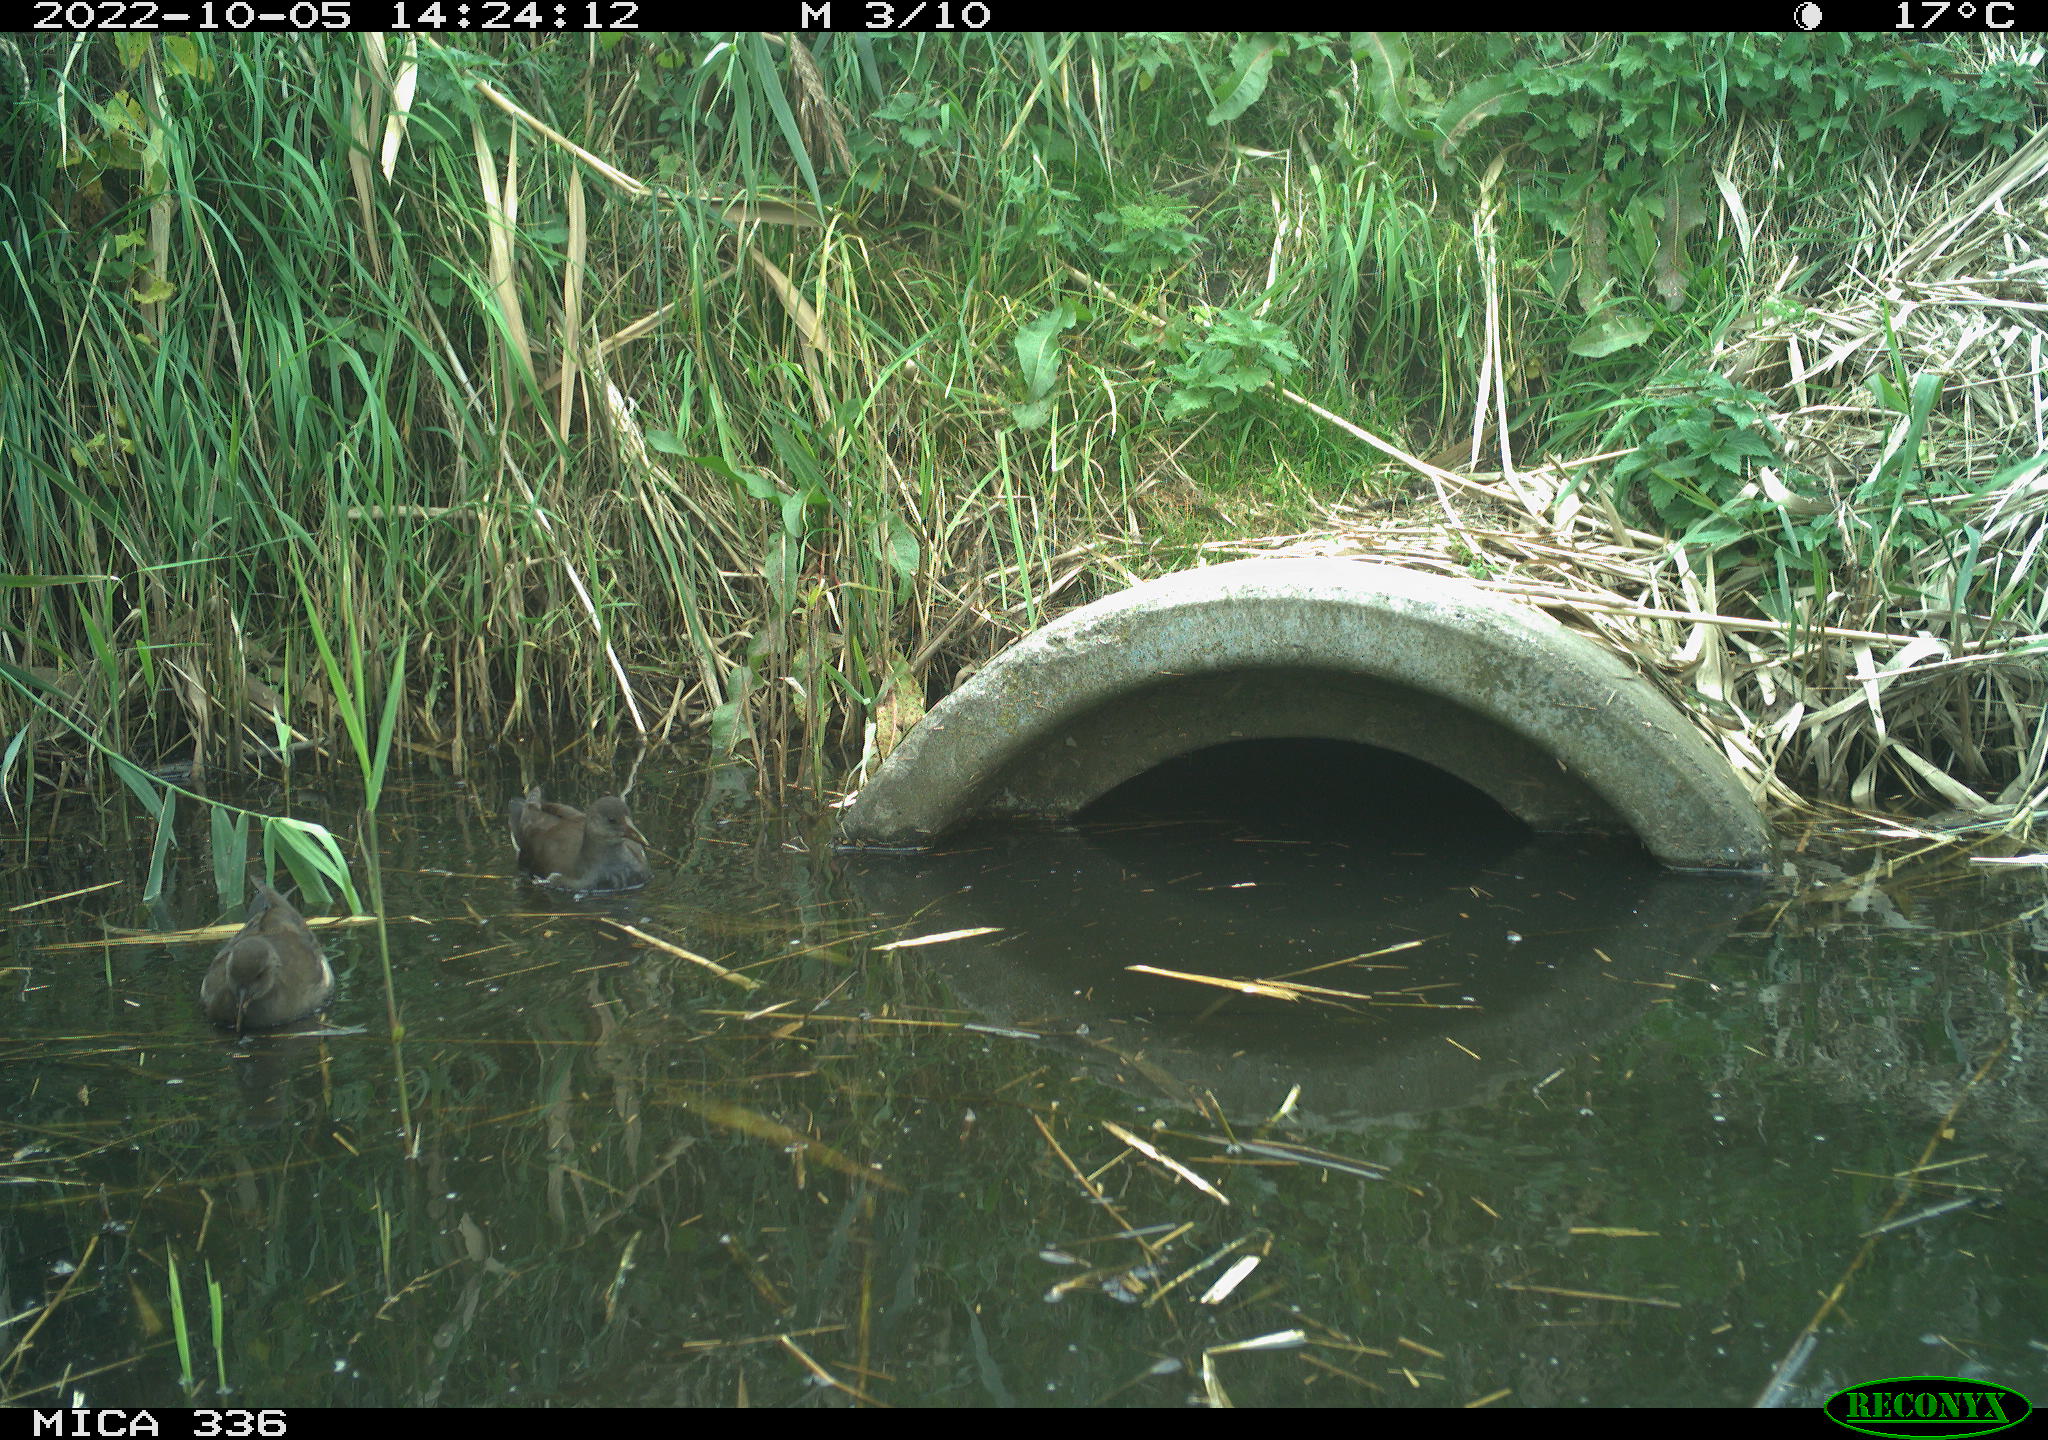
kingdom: Animalia
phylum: Chordata
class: Aves
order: Gruiformes
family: Rallidae
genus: Gallinula
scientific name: Gallinula chloropus
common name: Common moorhen
